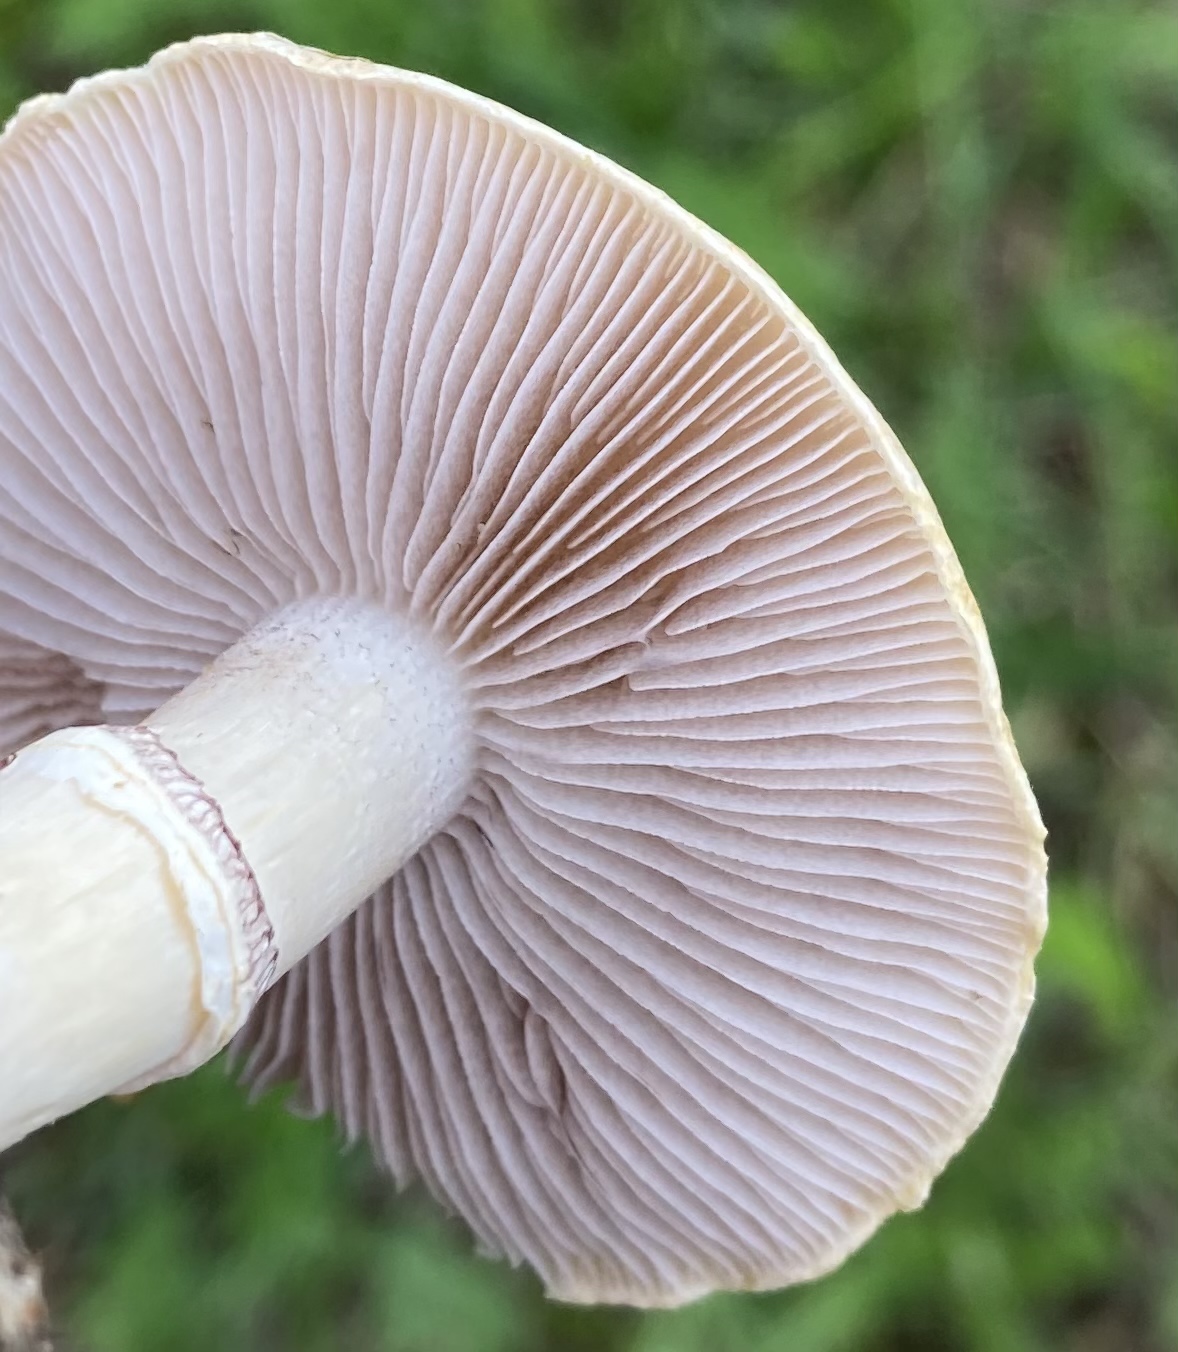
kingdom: Fungi
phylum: Basidiomycota
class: Agaricomycetes
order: Agaricales
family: Hymenogastraceae
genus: Psilocybe
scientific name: Psilocybe coronilla
